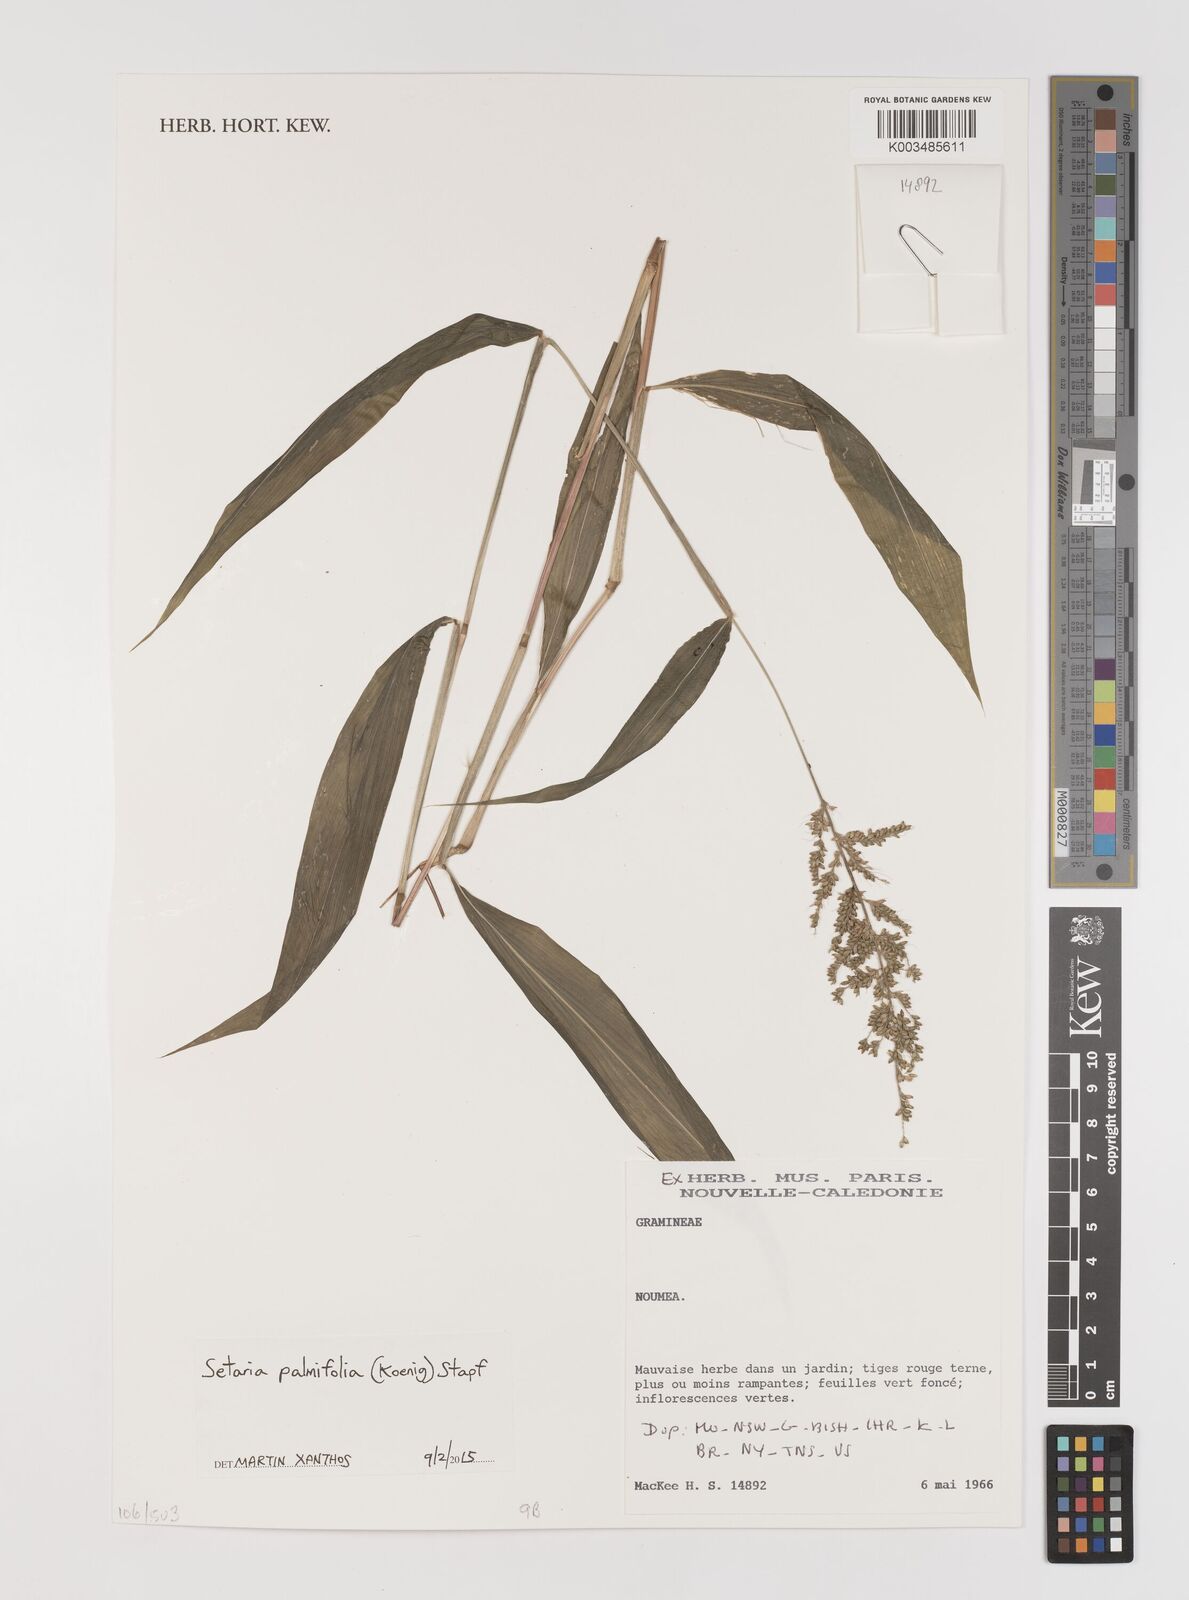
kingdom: Plantae
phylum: Tracheophyta
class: Liliopsida
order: Poales
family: Poaceae
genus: Setaria
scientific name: Setaria palmifolia
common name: Broadleaved bristlegrass
